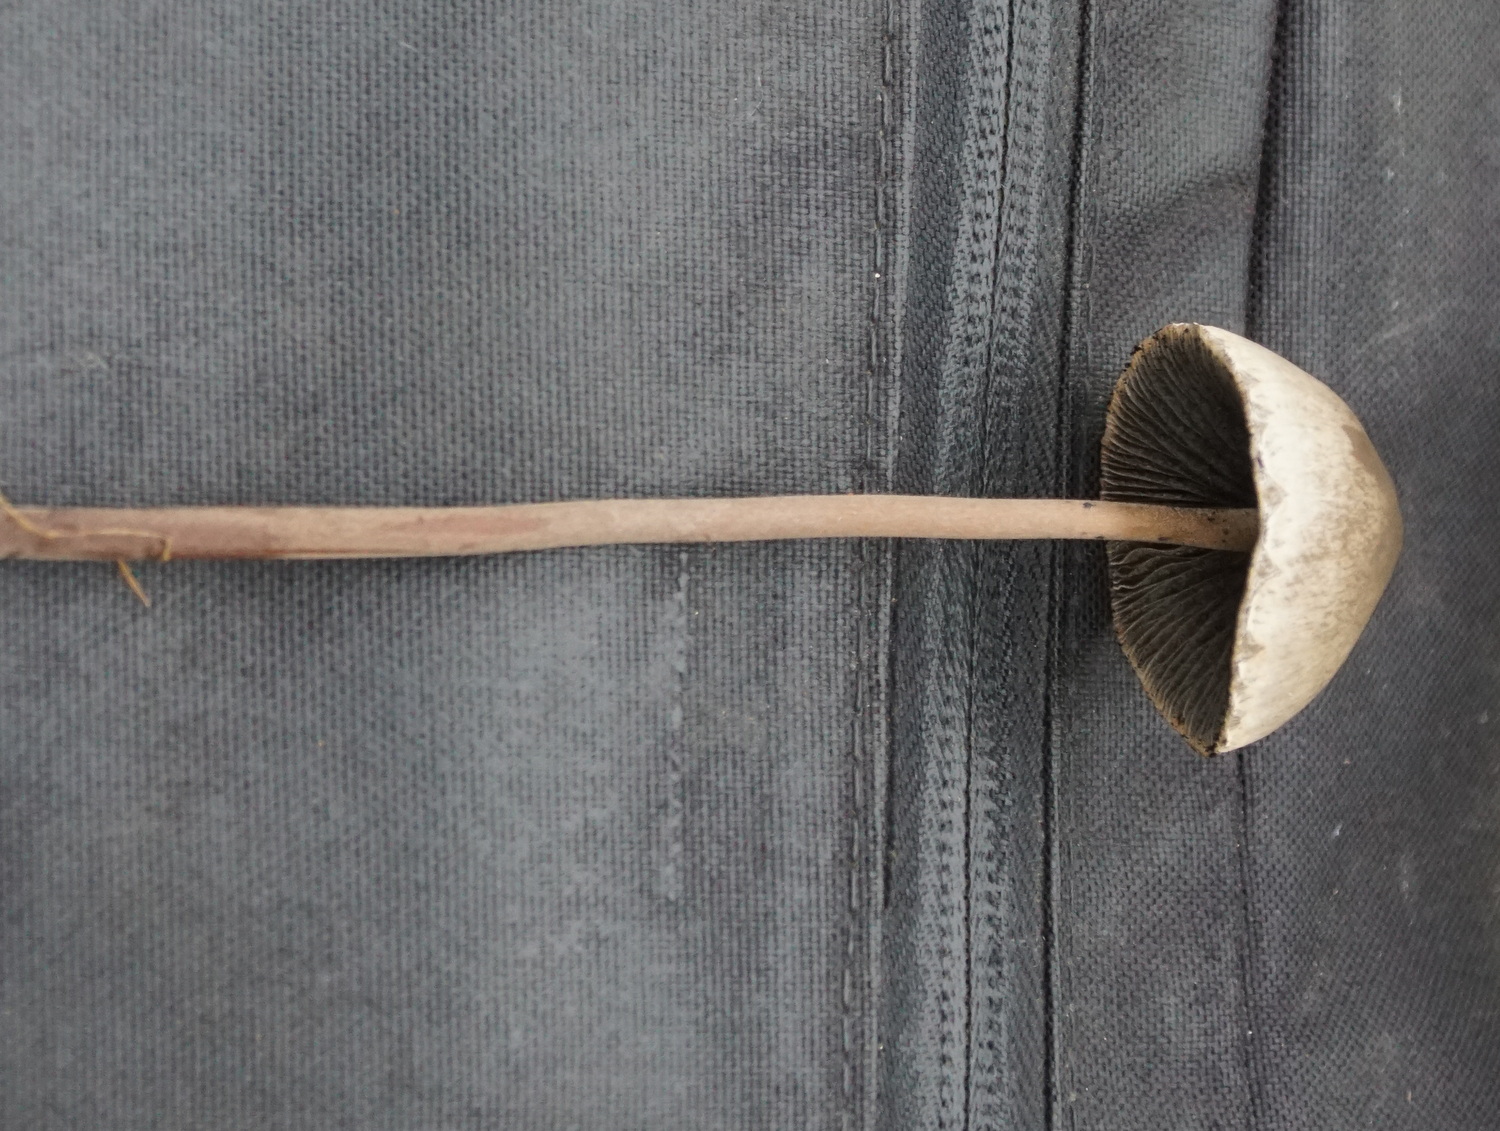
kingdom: Fungi
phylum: Basidiomycota
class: Agaricomycetes
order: Agaricales
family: Bolbitiaceae
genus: Panaeolus
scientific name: Panaeolus papilionaceus
